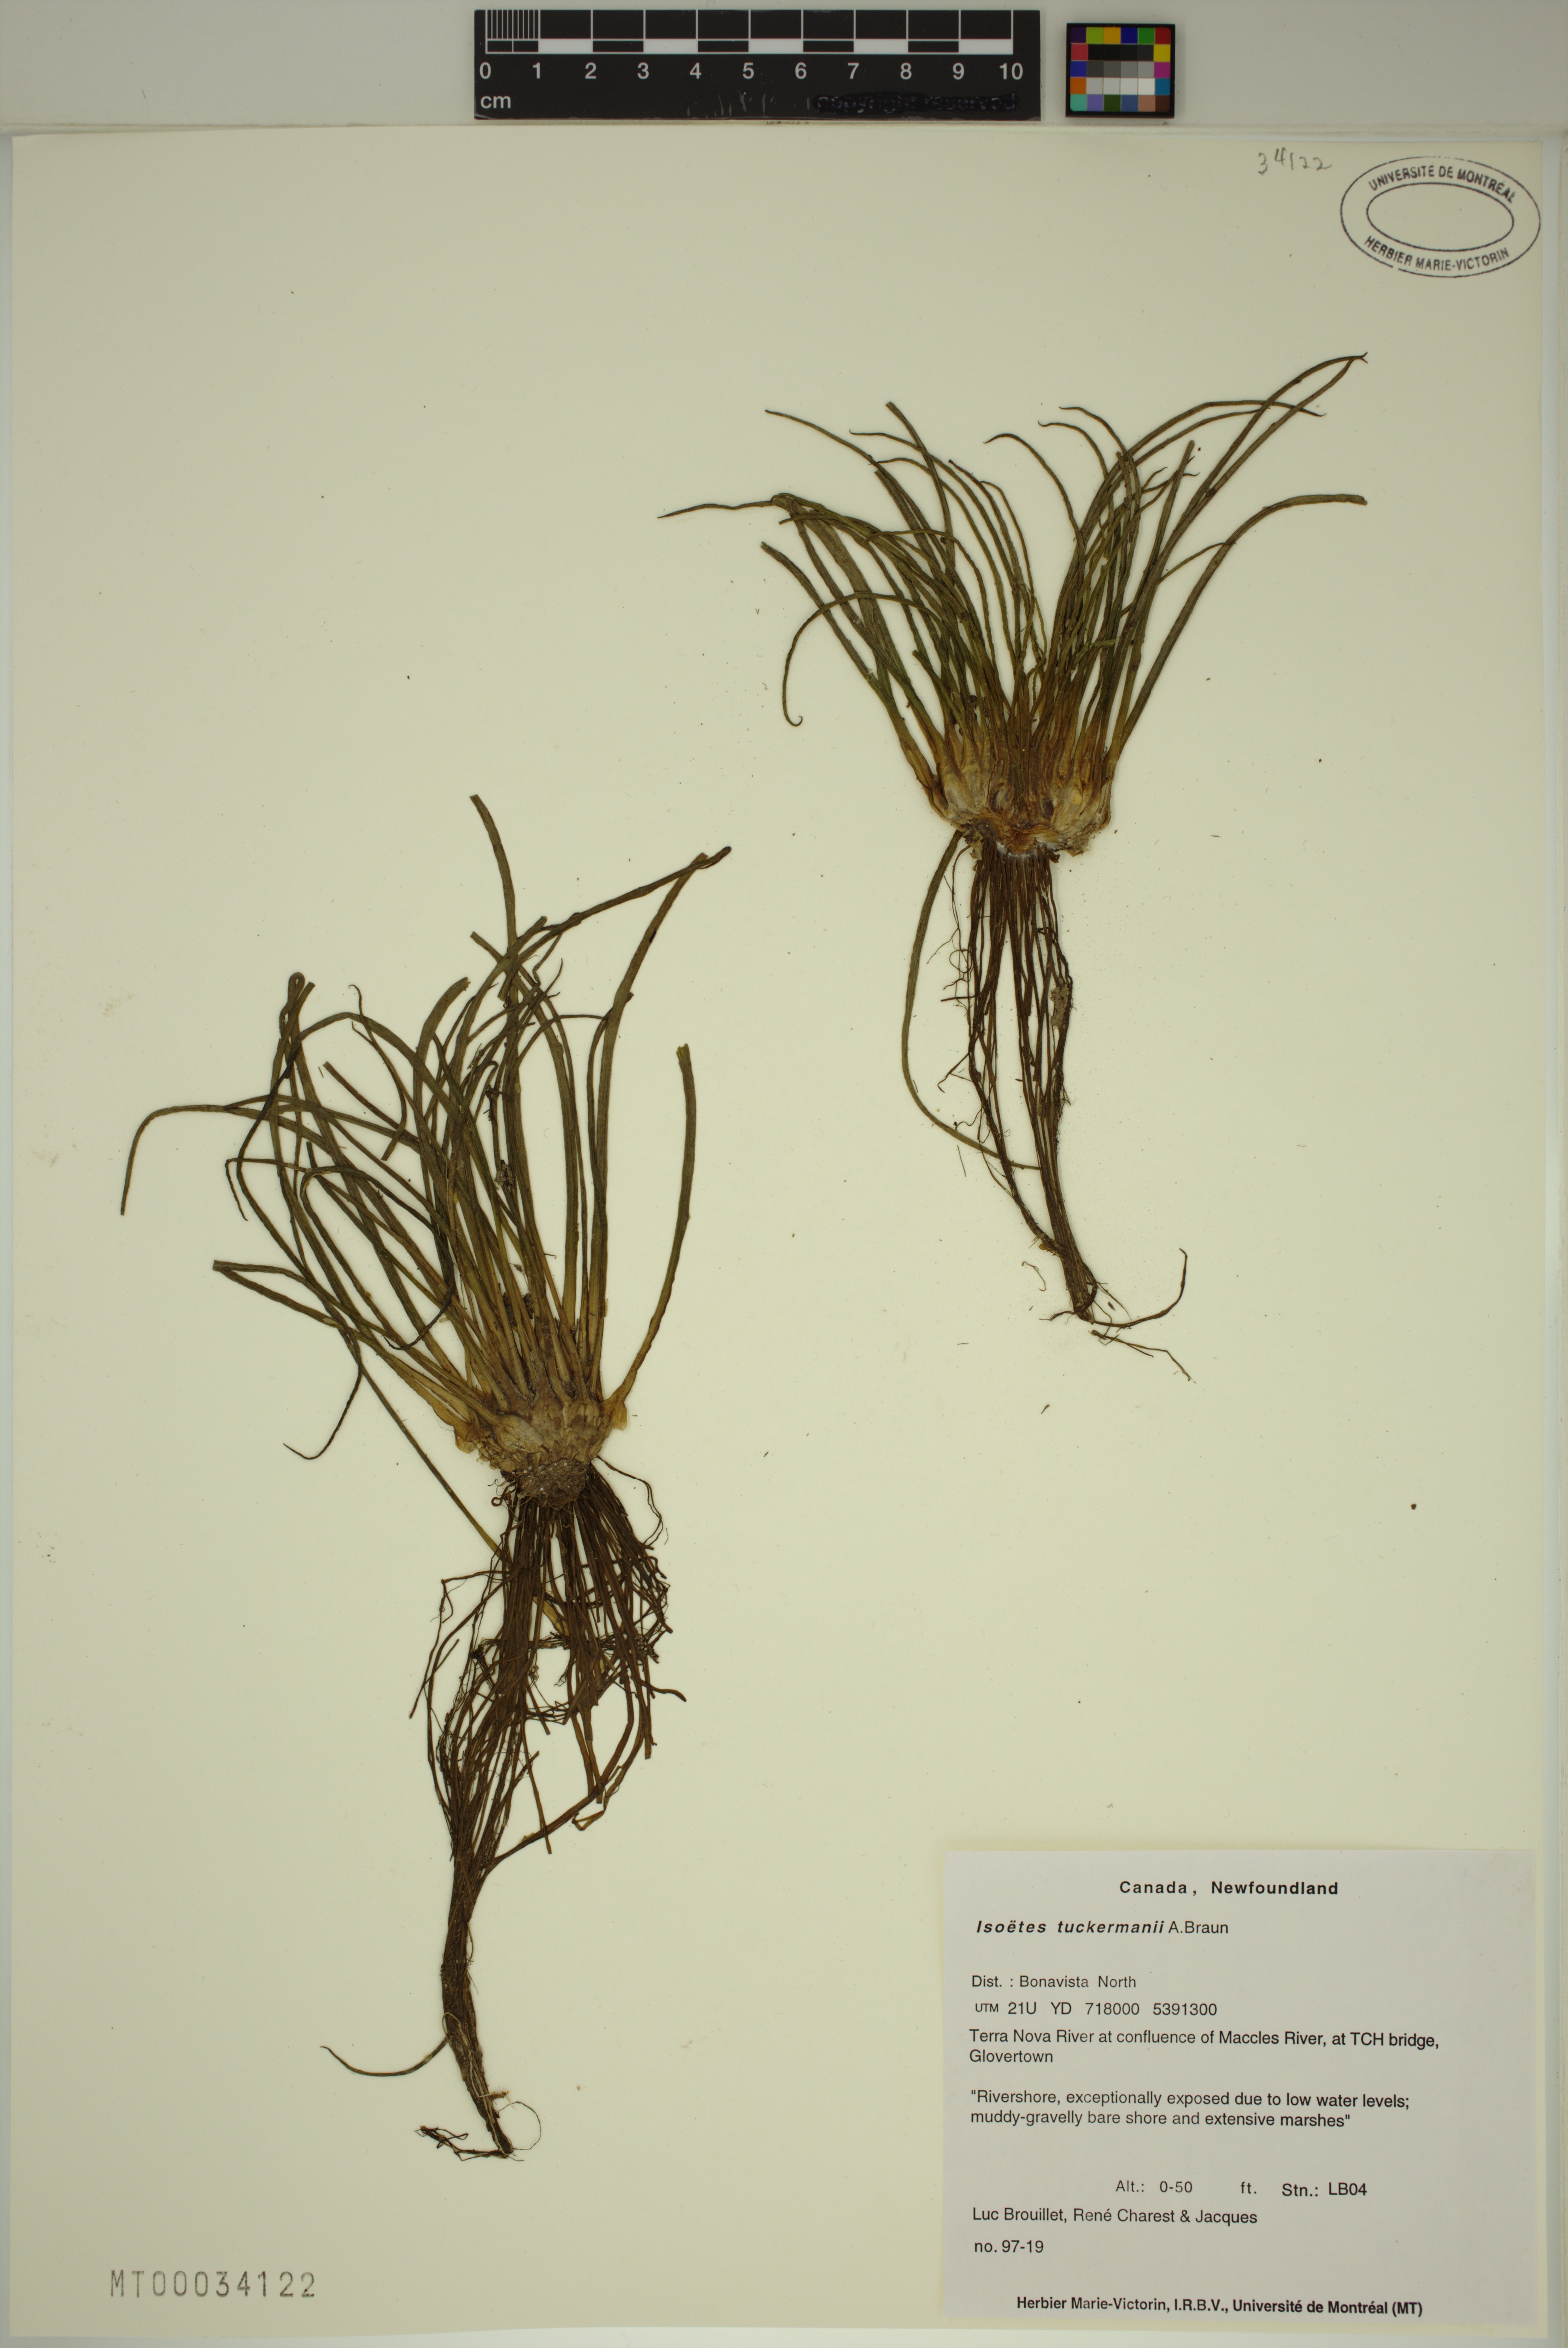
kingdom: Plantae
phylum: Tracheophyta
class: Lycopodiopsida
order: Isoetales
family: Isoetaceae
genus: Isoetes
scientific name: Isoetes harveyi
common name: Harvey's quillwort
